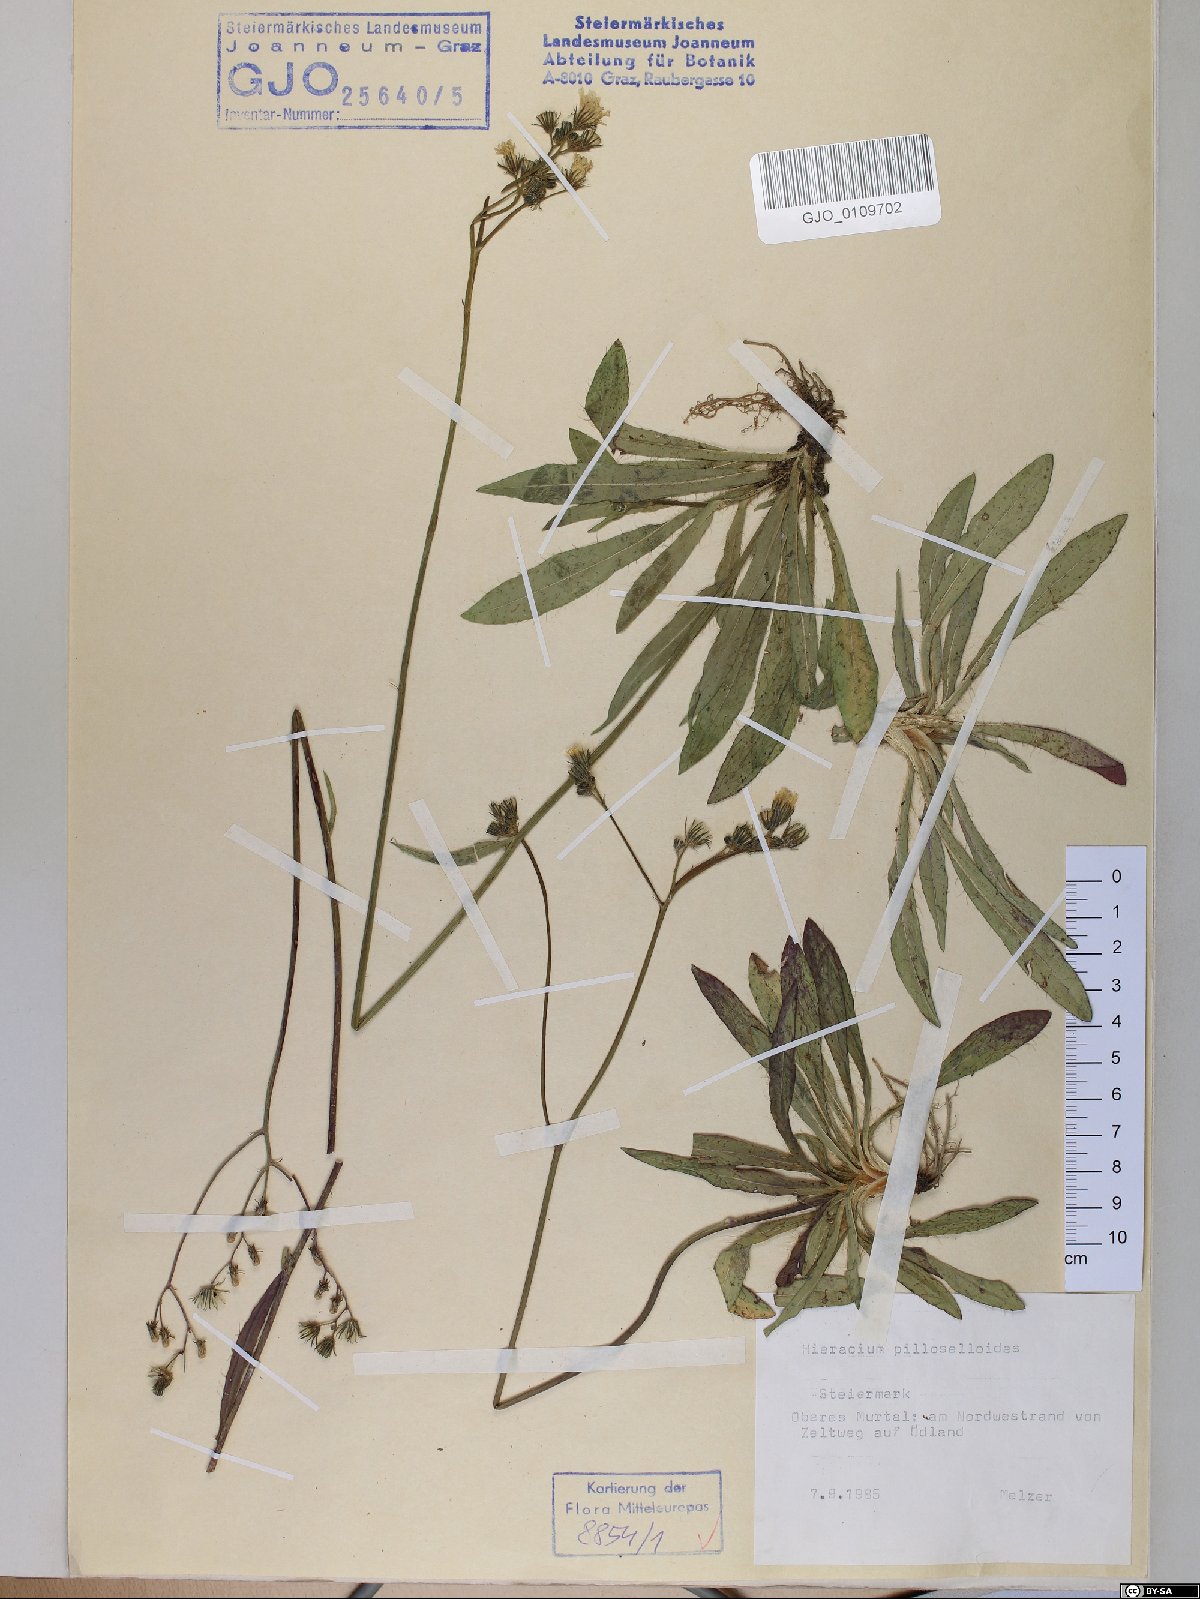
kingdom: Plantae
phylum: Tracheophyta
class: Magnoliopsida
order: Asterales
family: Asteraceae
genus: Pilosella
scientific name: Pilosella piloselloides
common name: Glaucous king-devil
